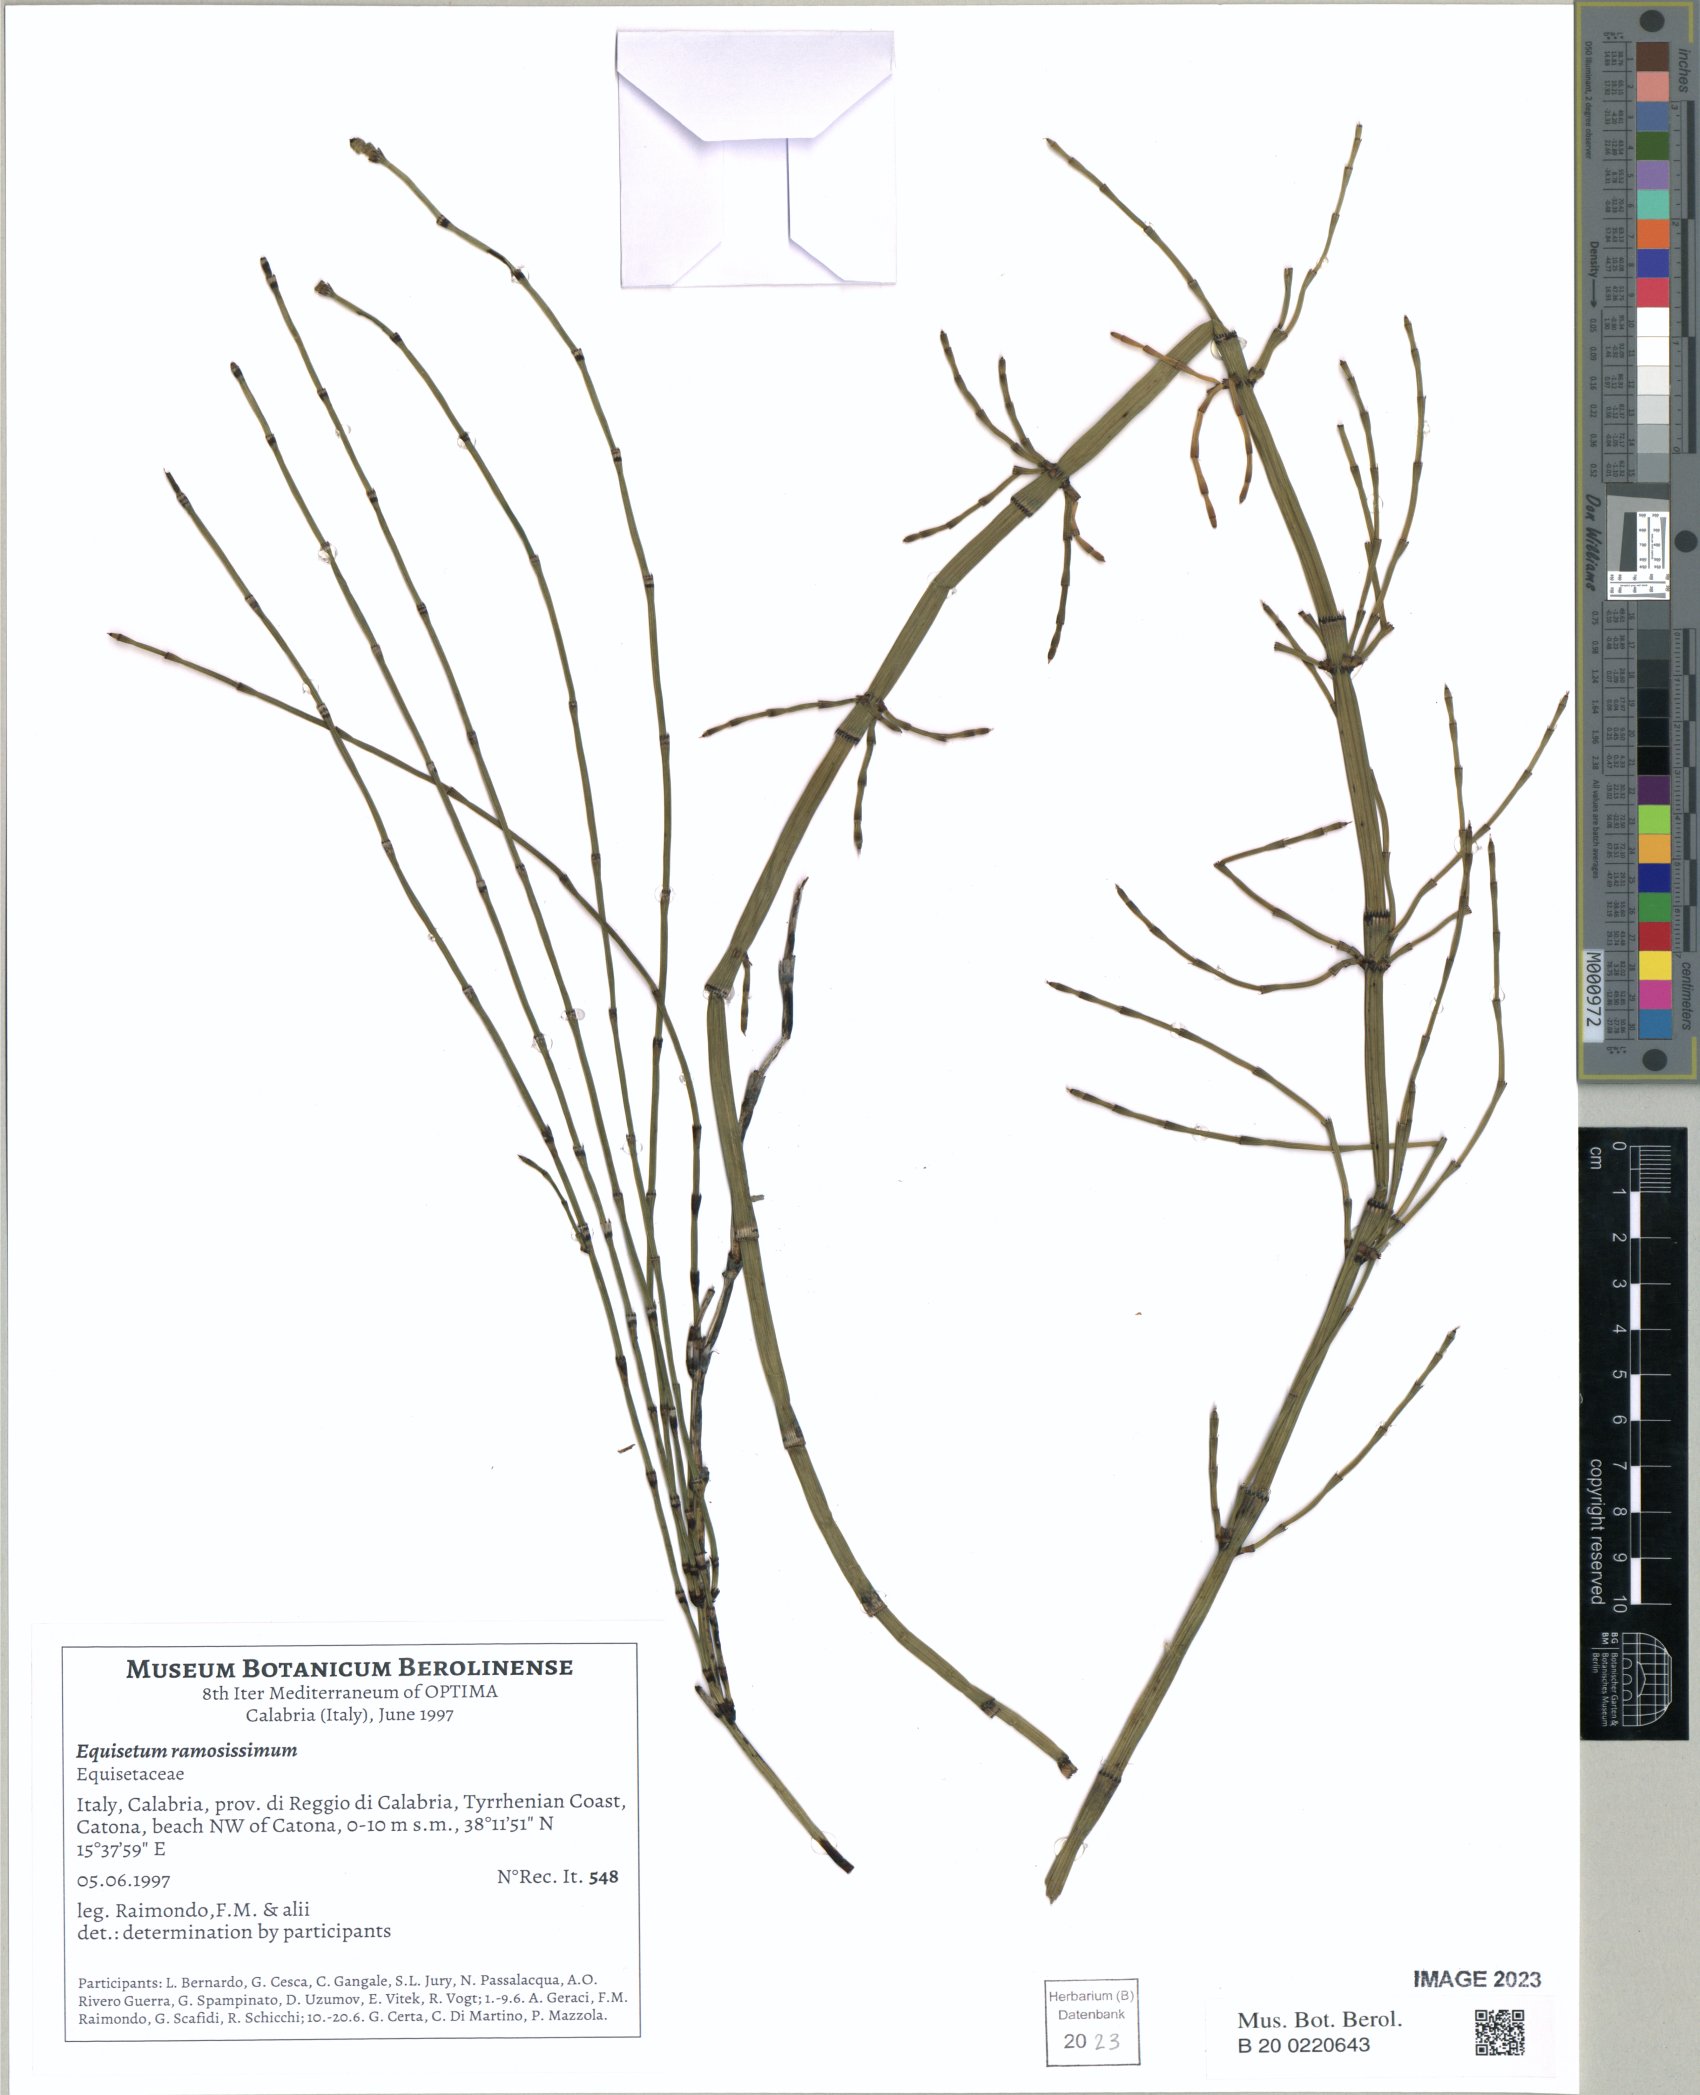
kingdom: Plantae
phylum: Tracheophyta
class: Polypodiopsida
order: Equisetales
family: Equisetaceae
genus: Equisetum
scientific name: Equisetum ramosissimum
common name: Branched horsetail
